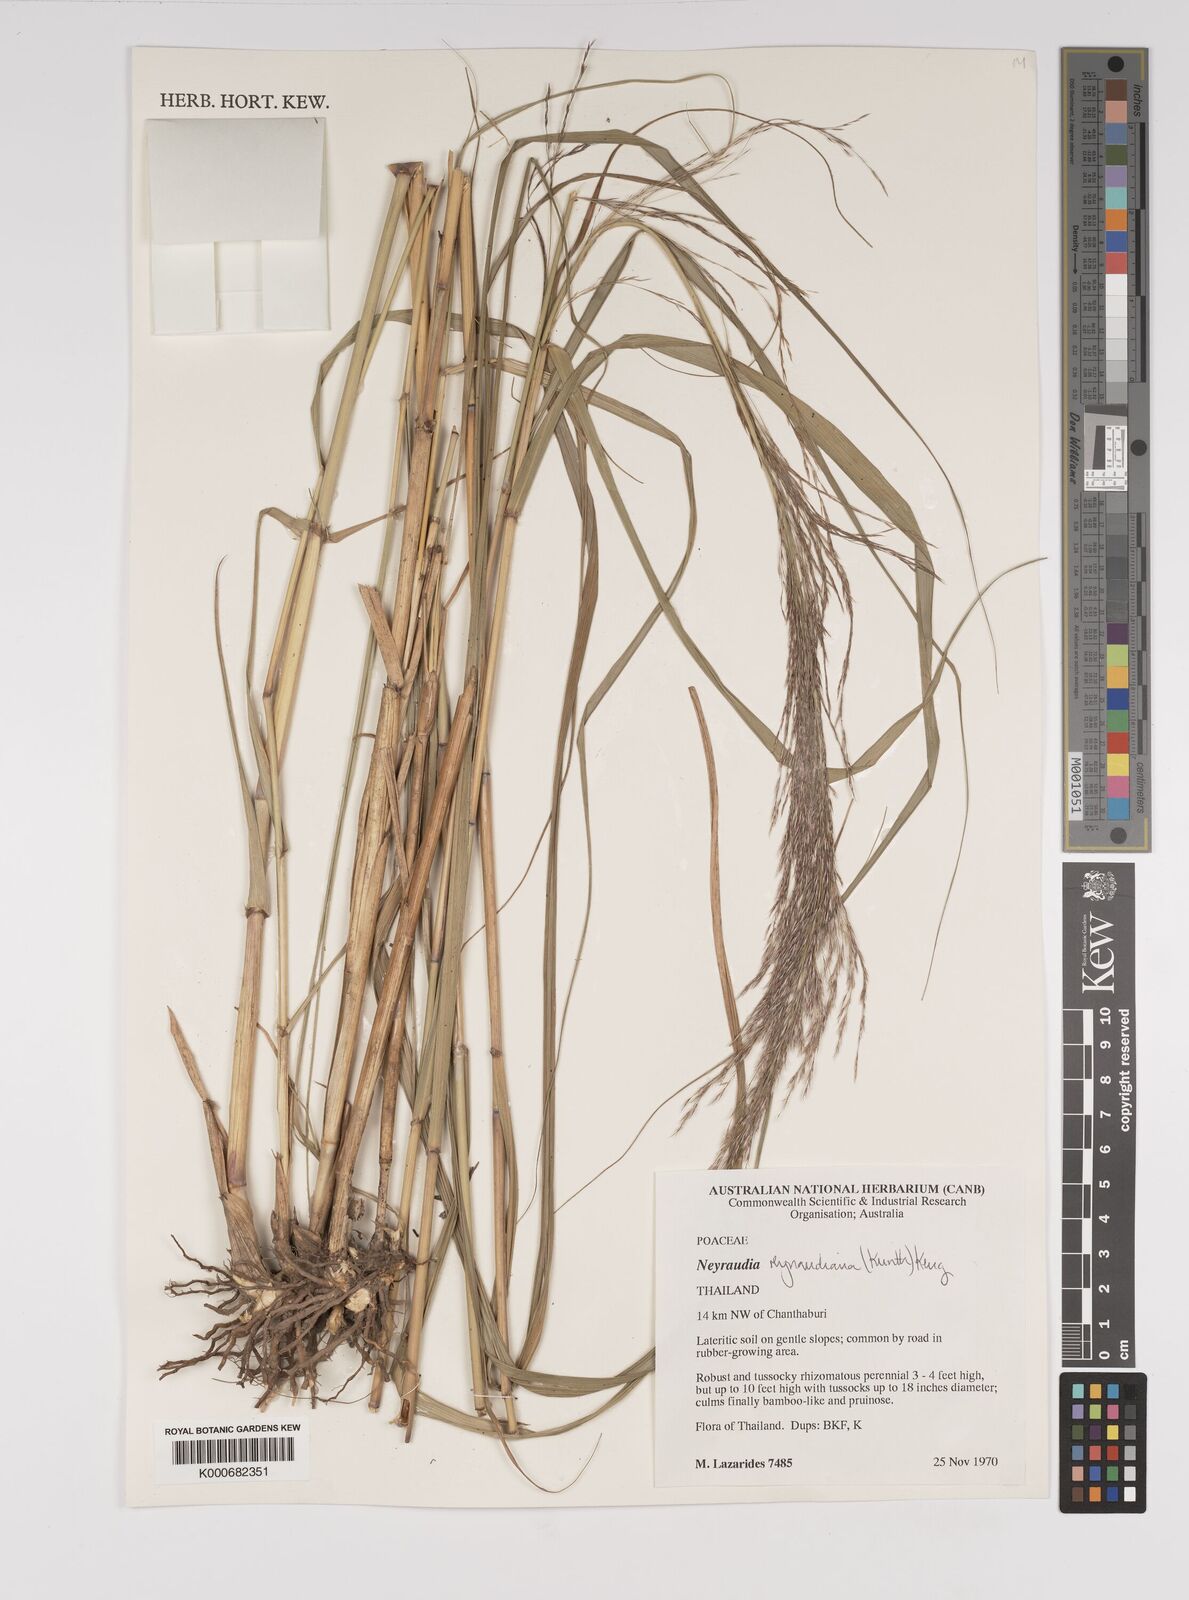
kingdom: Plantae
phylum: Tracheophyta
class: Liliopsida
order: Poales
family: Poaceae
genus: Neyraudia
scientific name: Neyraudia reynaudiana
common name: Silkreed
